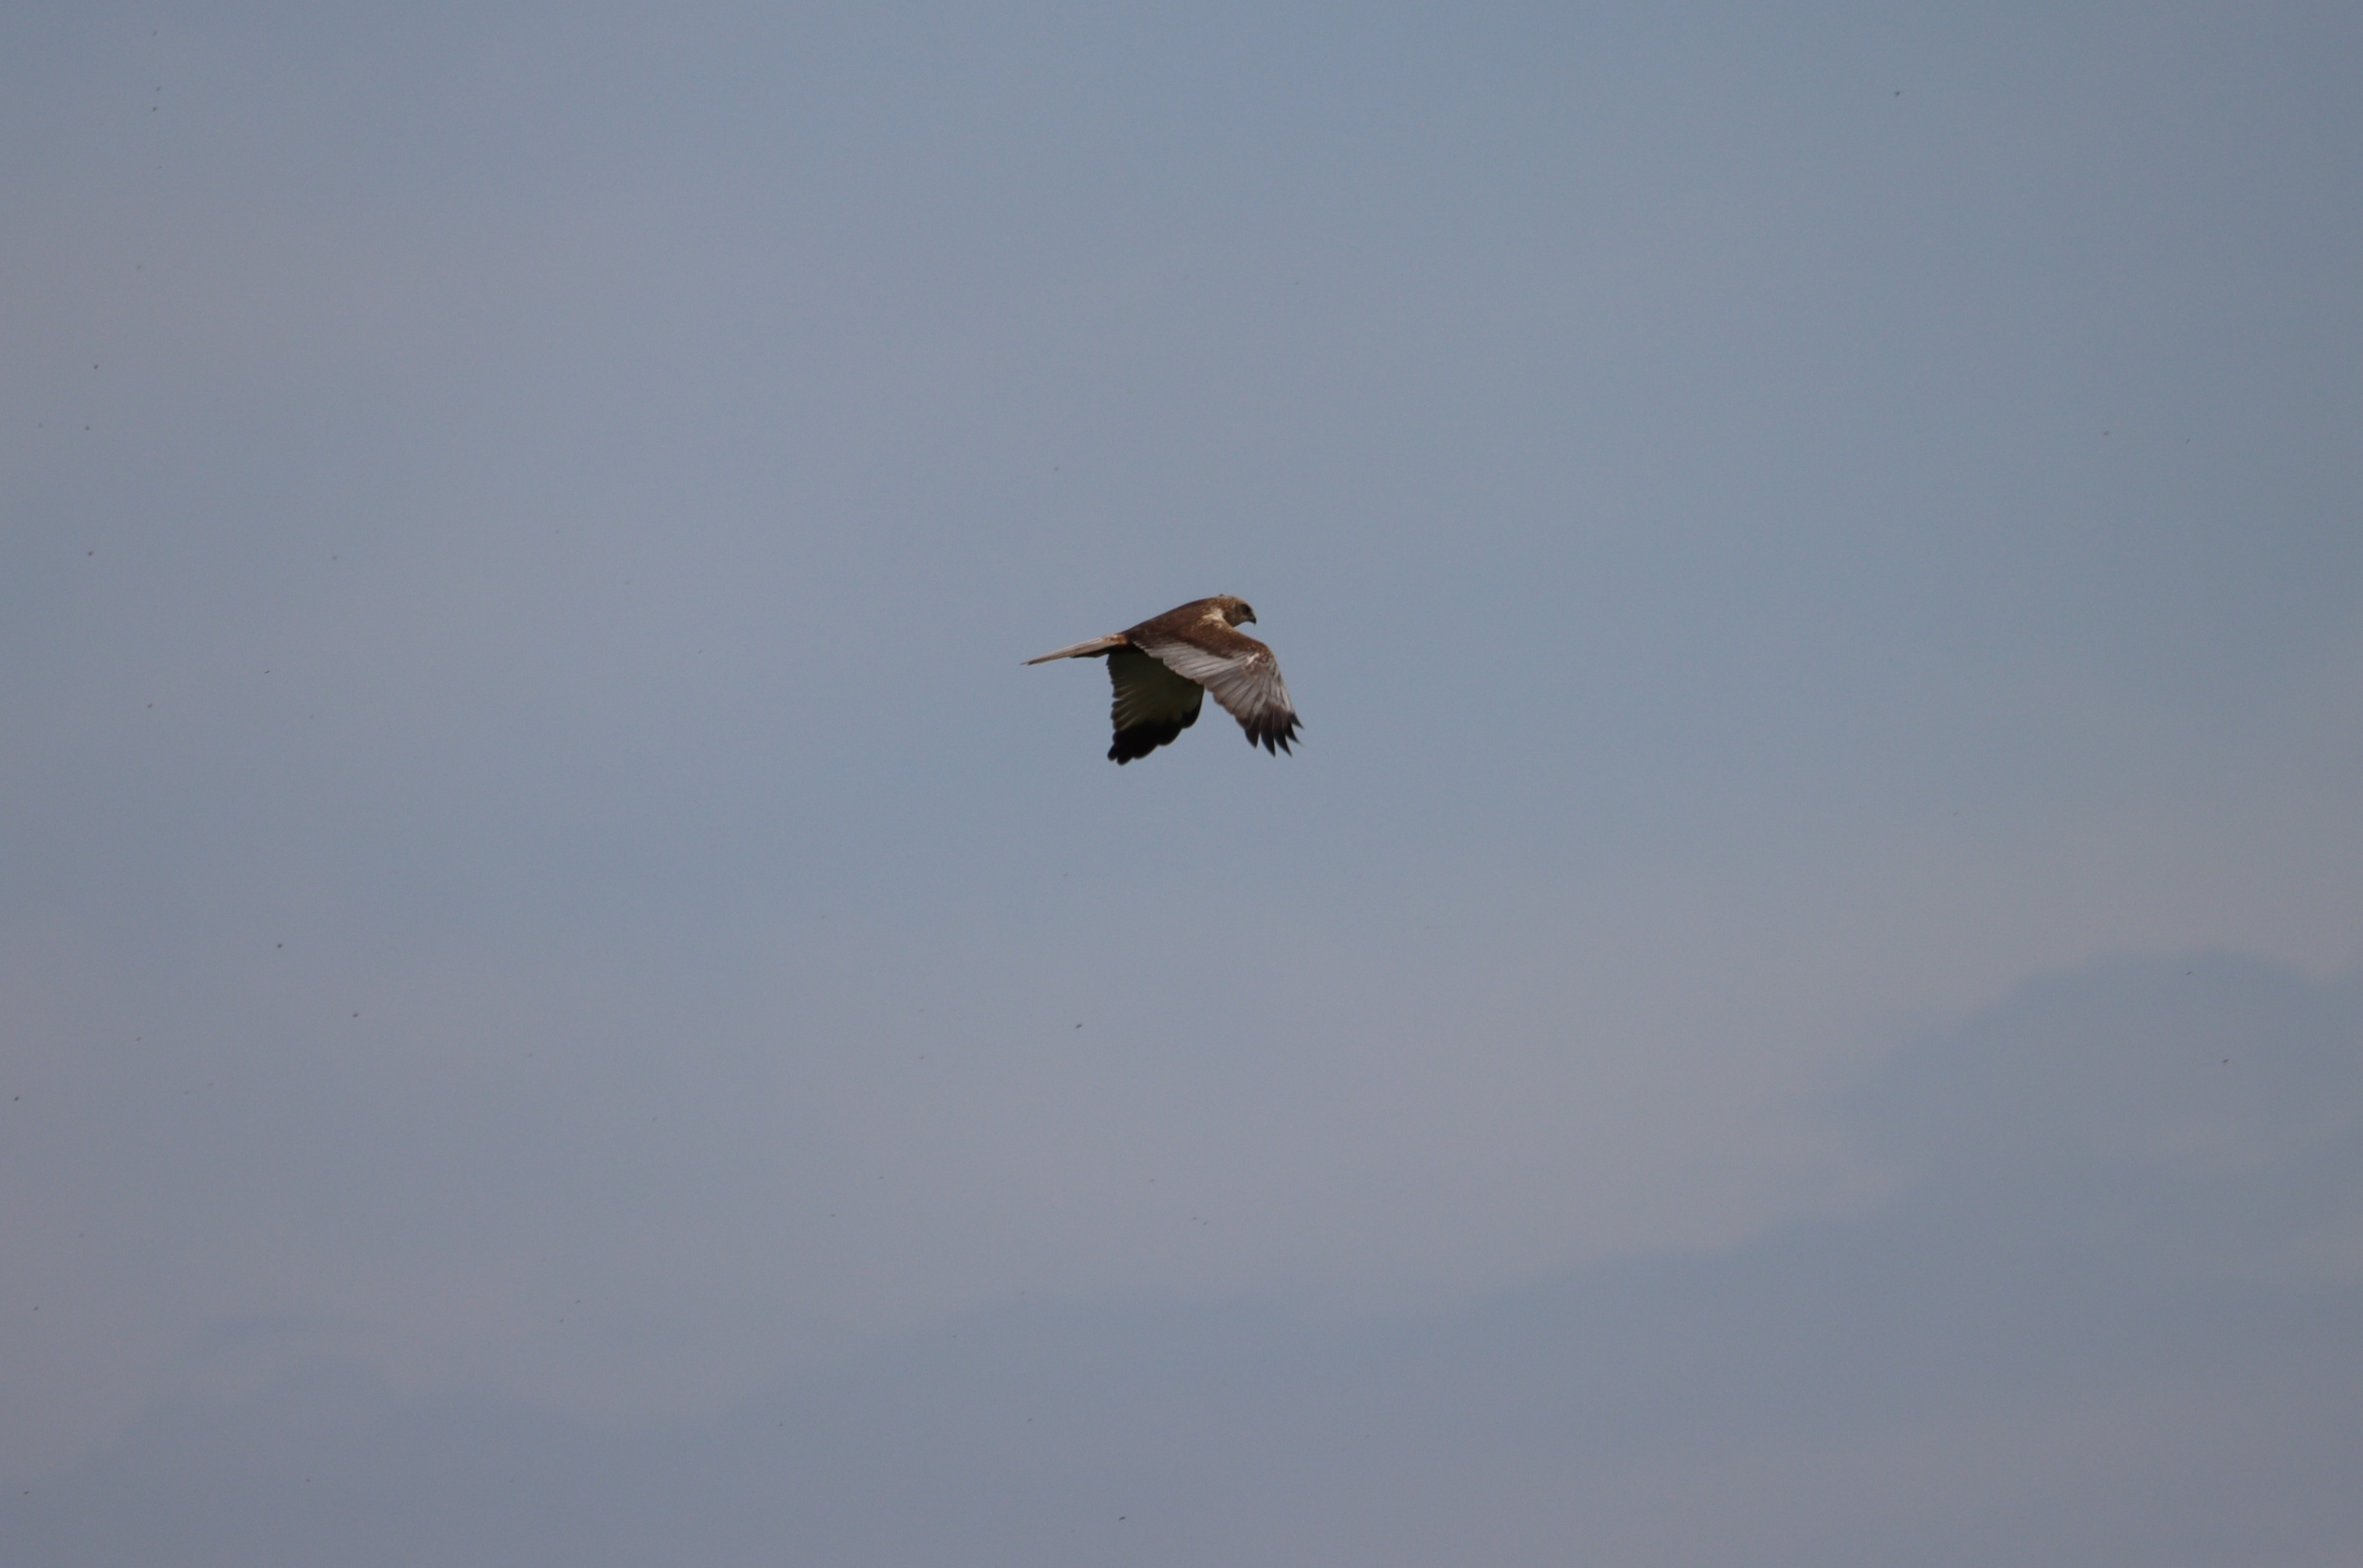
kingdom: Animalia
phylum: Chordata
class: Aves
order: Accipitriformes
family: Accipitridae
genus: Circus
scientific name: Circus aeruginosus
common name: Rørhøg
